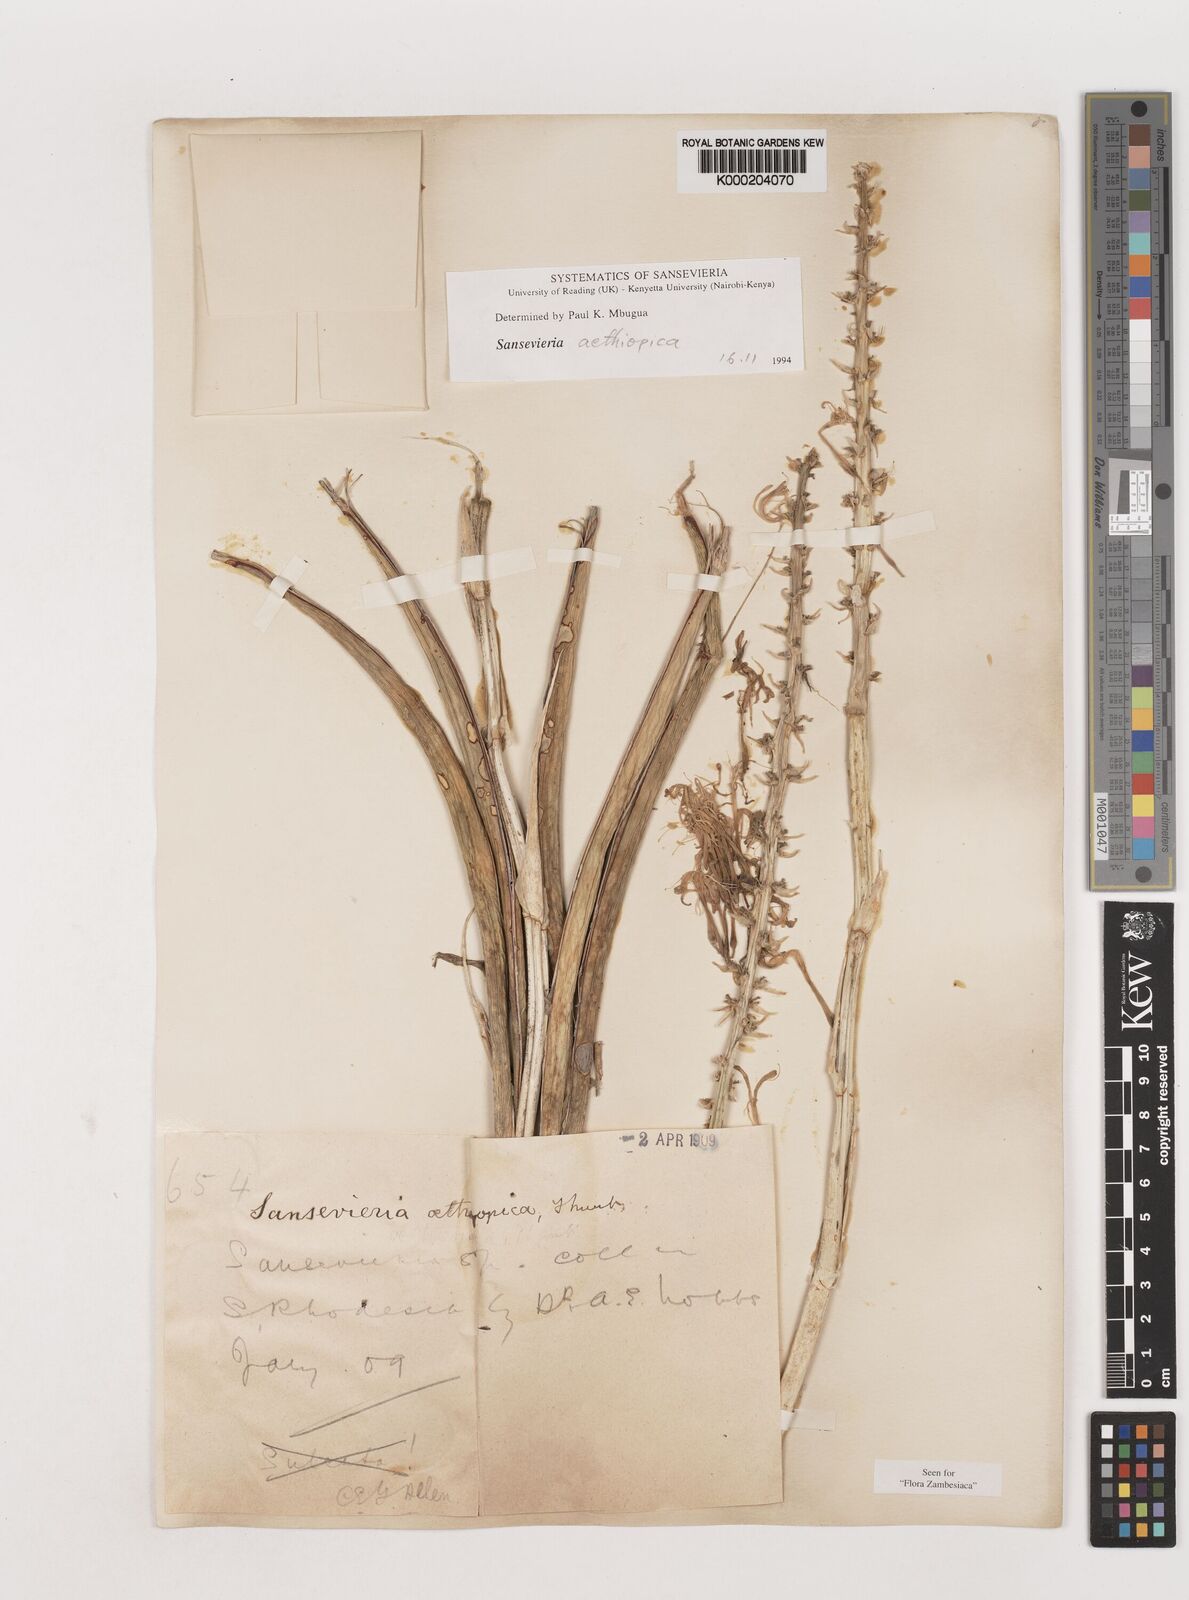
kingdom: Plantae
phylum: Tracheophyta
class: Liliopsida
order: Asparagales
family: Asparagaceae
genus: Dracaena
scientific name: Dracaena aethiopica
